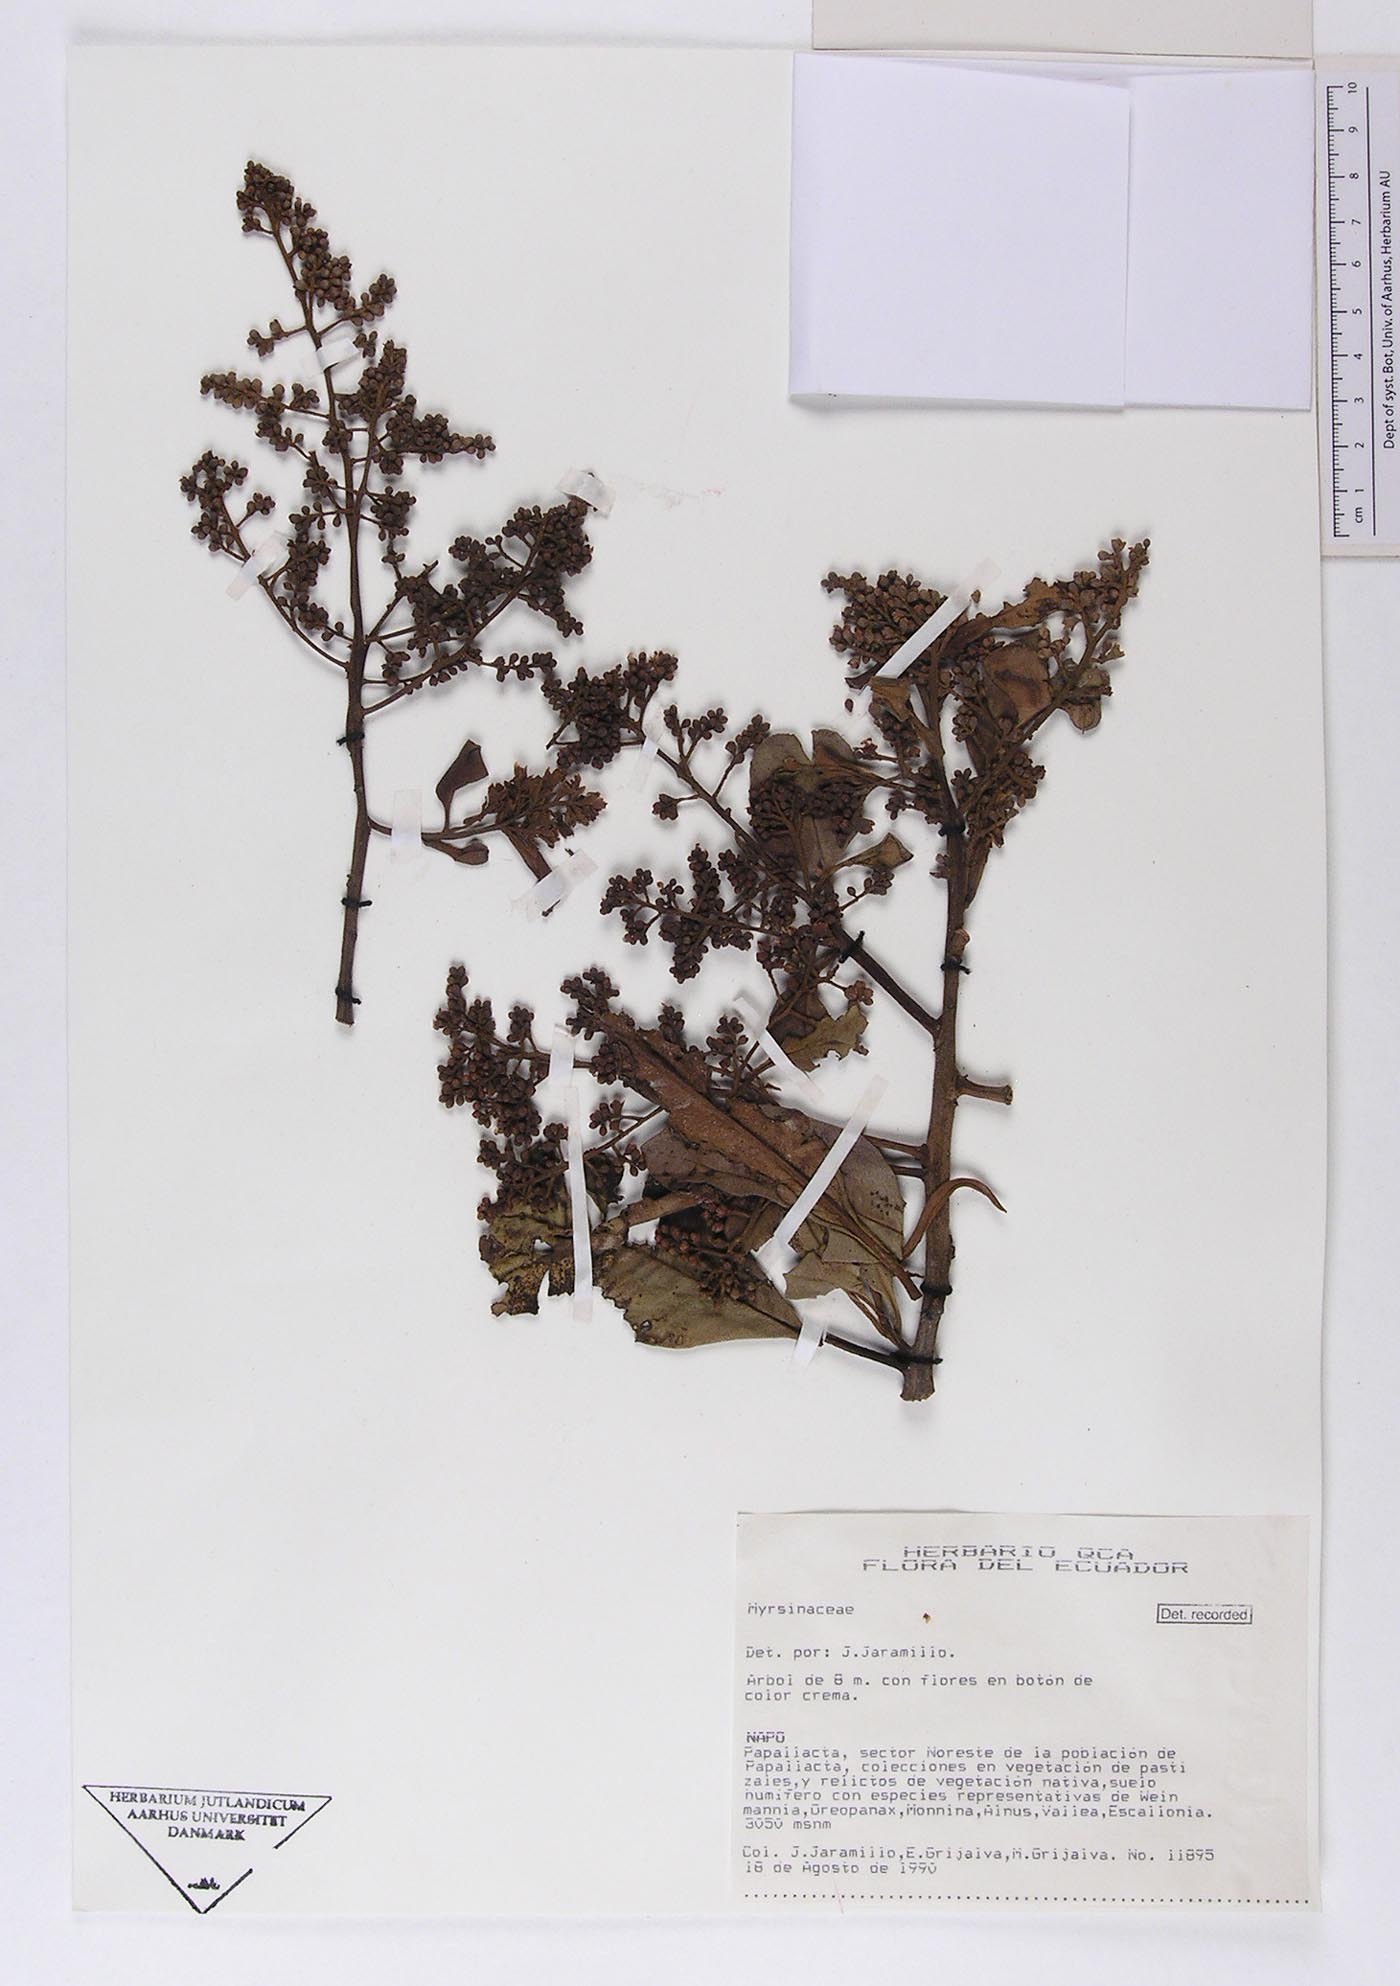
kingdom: Plantae
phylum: Tracheophyta
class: Magnoliopsida
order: Ericales
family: Primulaceae
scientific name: Primulaceae
